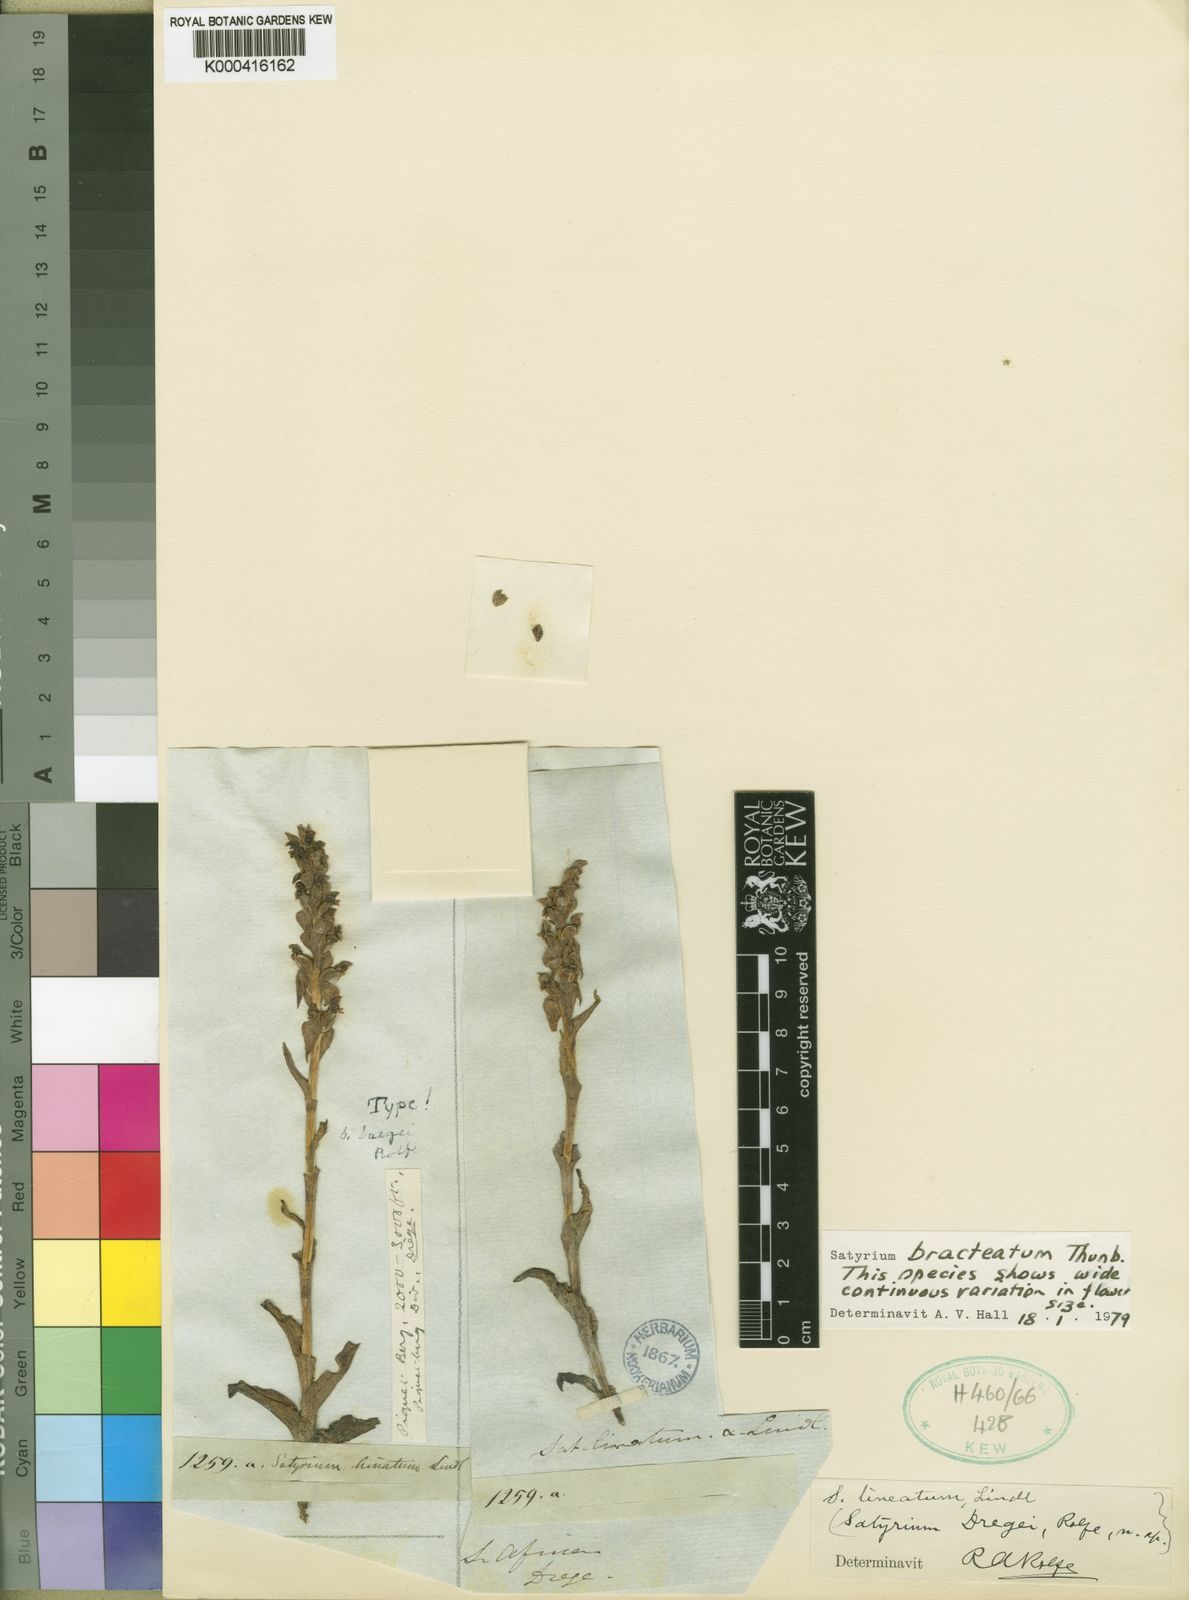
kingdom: Plantae
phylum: Tracheophyta
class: Liliopsida
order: Asparagales
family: Orchidaceae
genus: Satyrium
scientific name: Satyrium bracteatum
